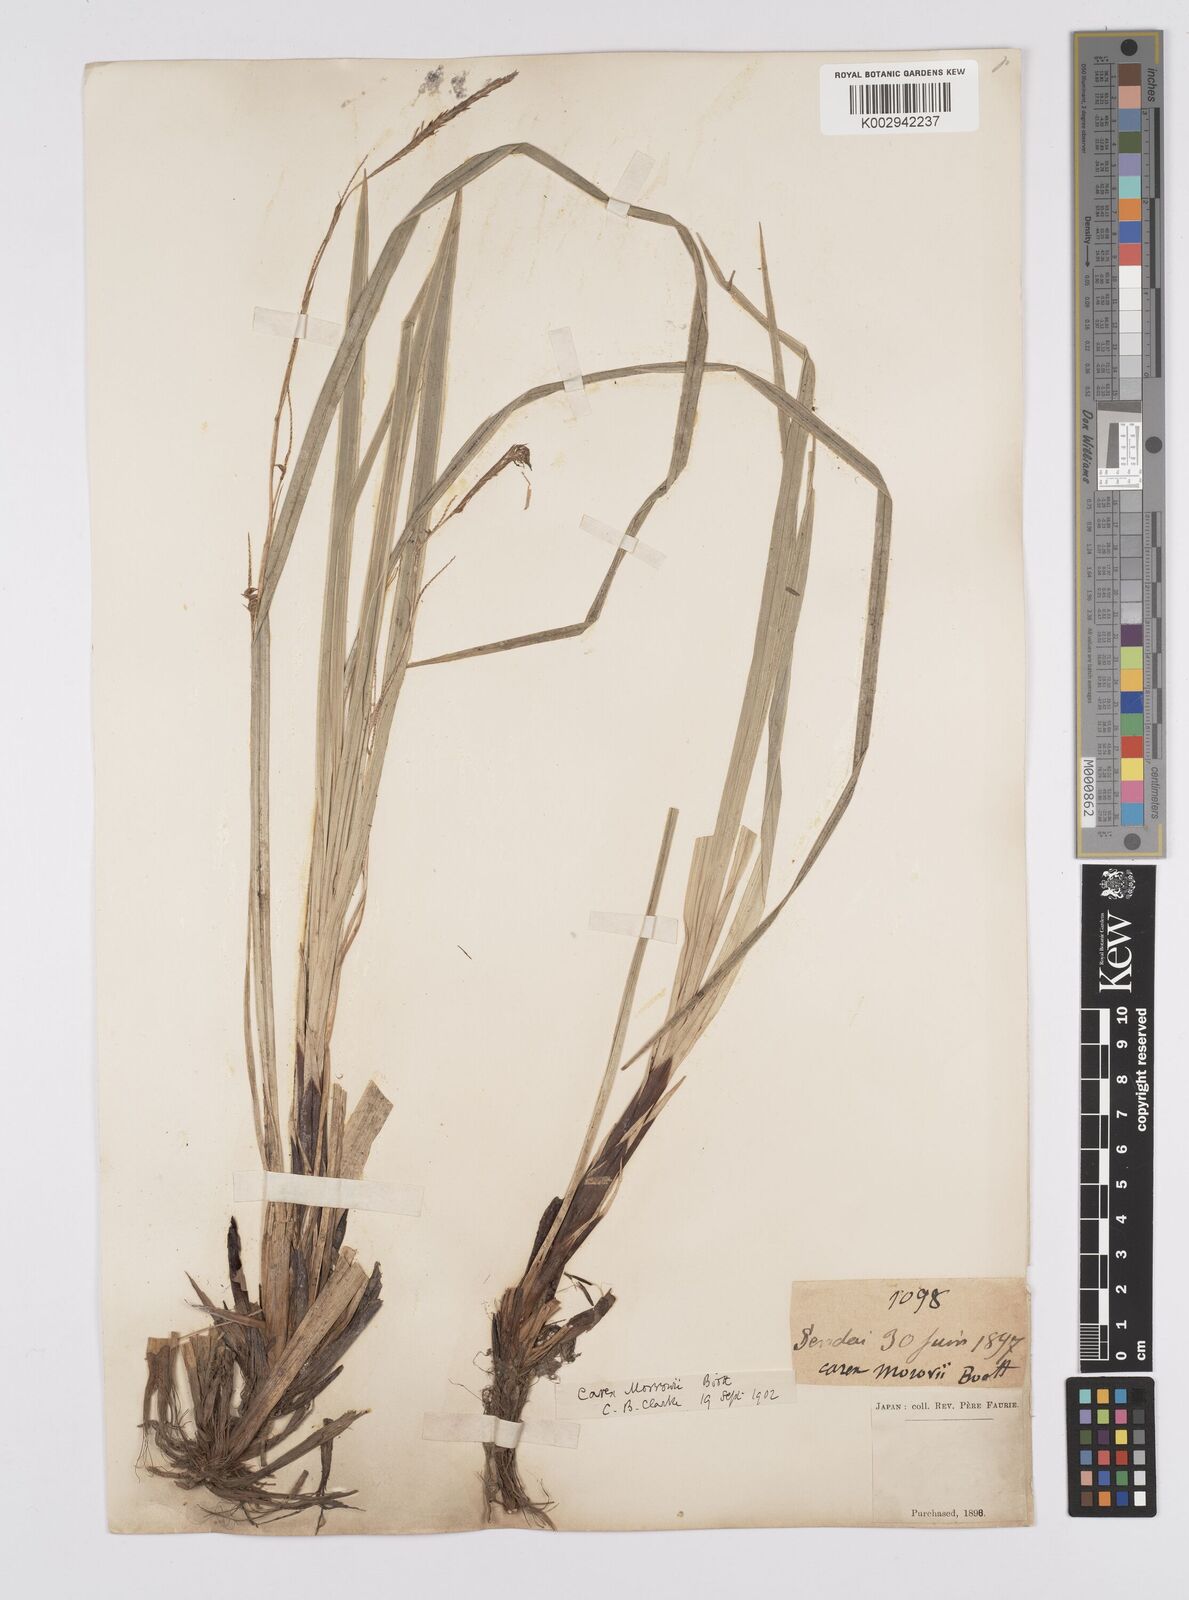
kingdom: Plantae
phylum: Tracheophyta
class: Liliopsida
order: Poales
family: Cyperaceae
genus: Carex
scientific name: Carex morrowii
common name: Japanese sedge
